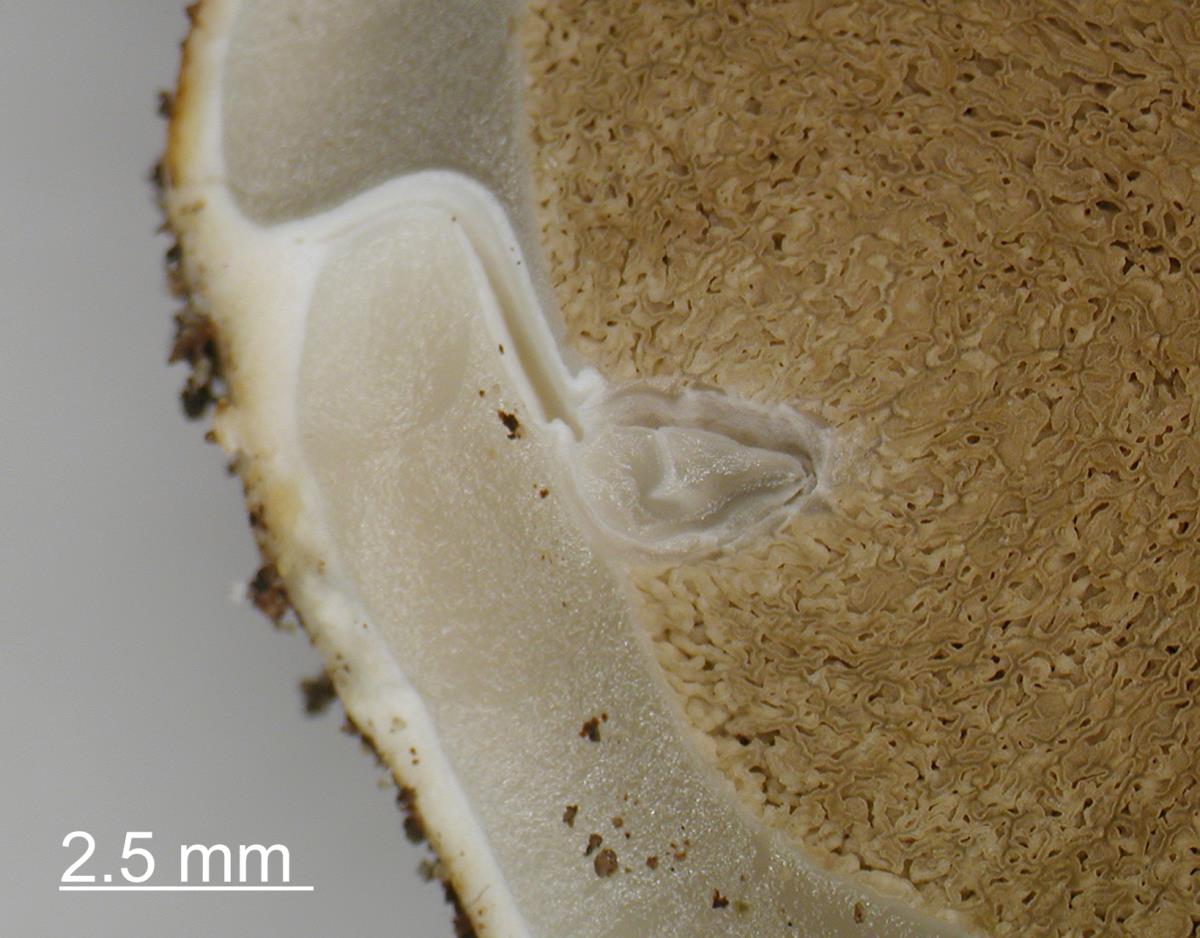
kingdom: Fungi
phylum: Basidiomycota
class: Agaricomycetes
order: Phallales
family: Phallaceae
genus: Ileodictyon
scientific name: Ileodictyon cibarium
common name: Basket fungus
